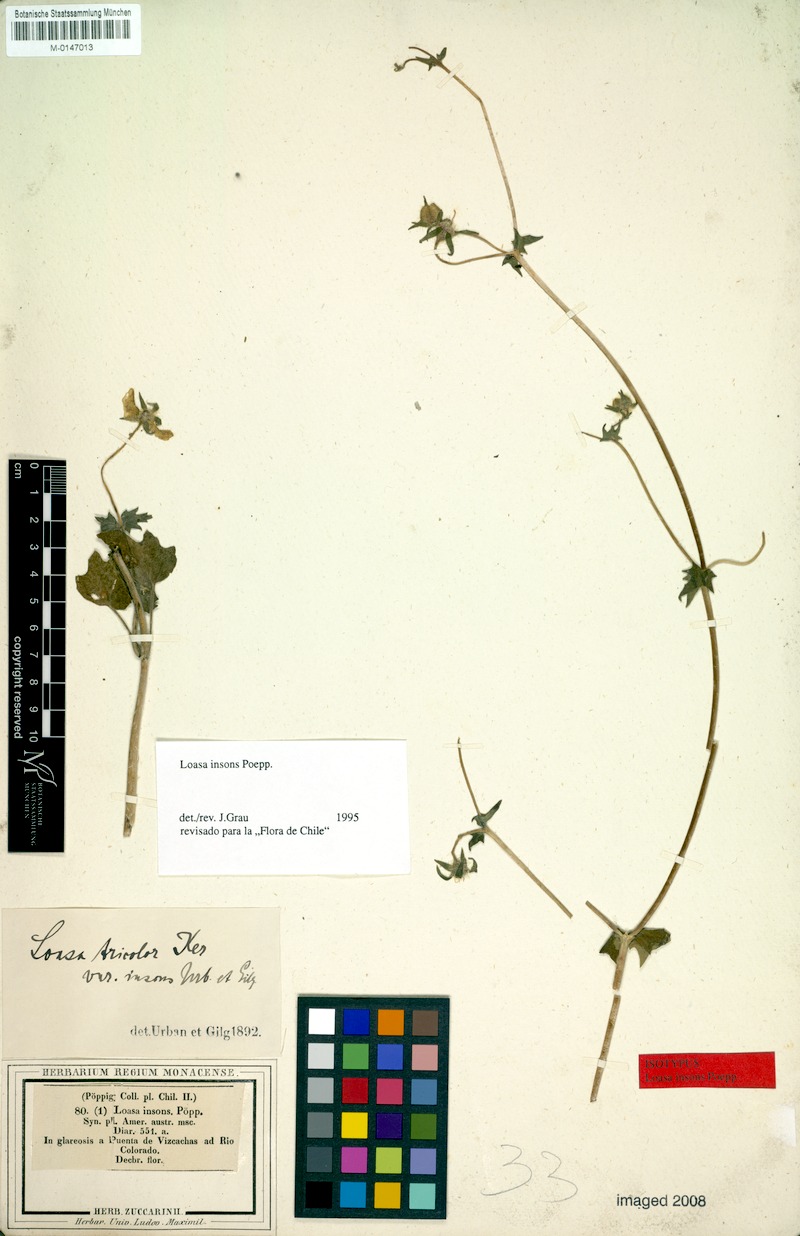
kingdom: Plantae
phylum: Tracheophyta
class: Magnoliopsida
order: Cornales
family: Loasaceae
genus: Loasa
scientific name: Loasa insons
